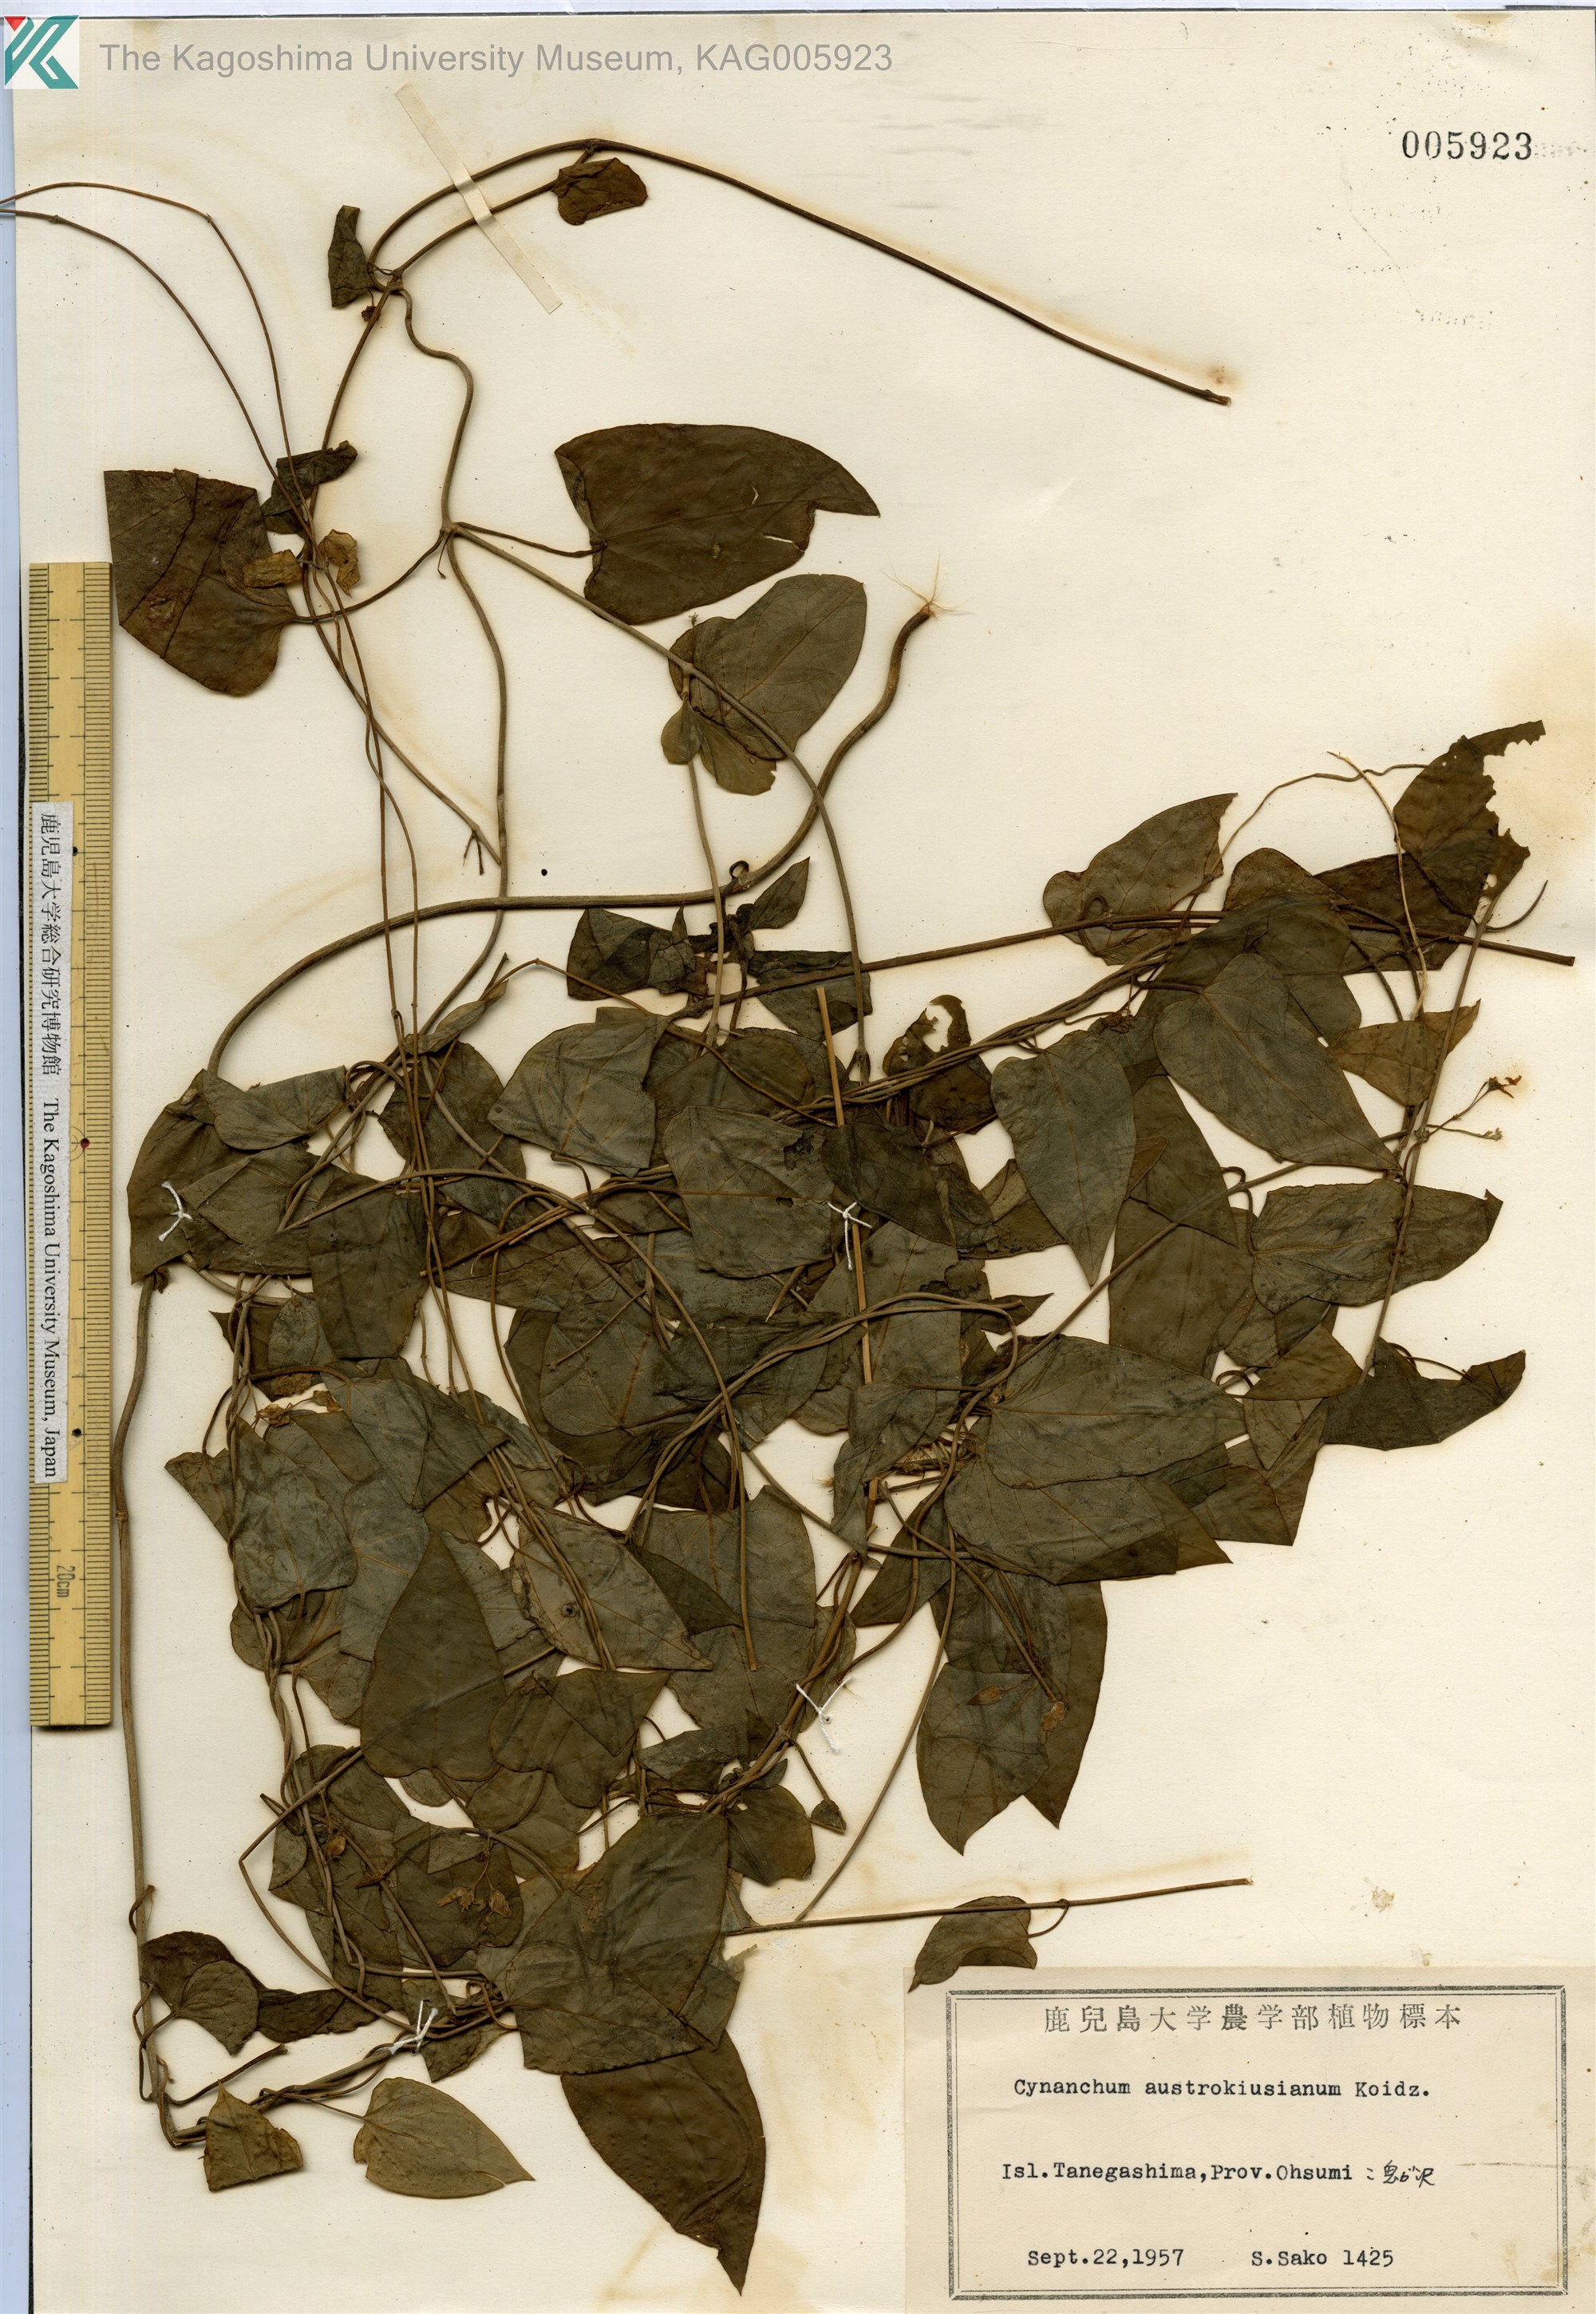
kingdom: Plantae
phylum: Tracheophyta
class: Magnoliopsida
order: Gentianales
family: Apocynaceae
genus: Vincetoxicum
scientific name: Vincetoxicum austrokiusianum
